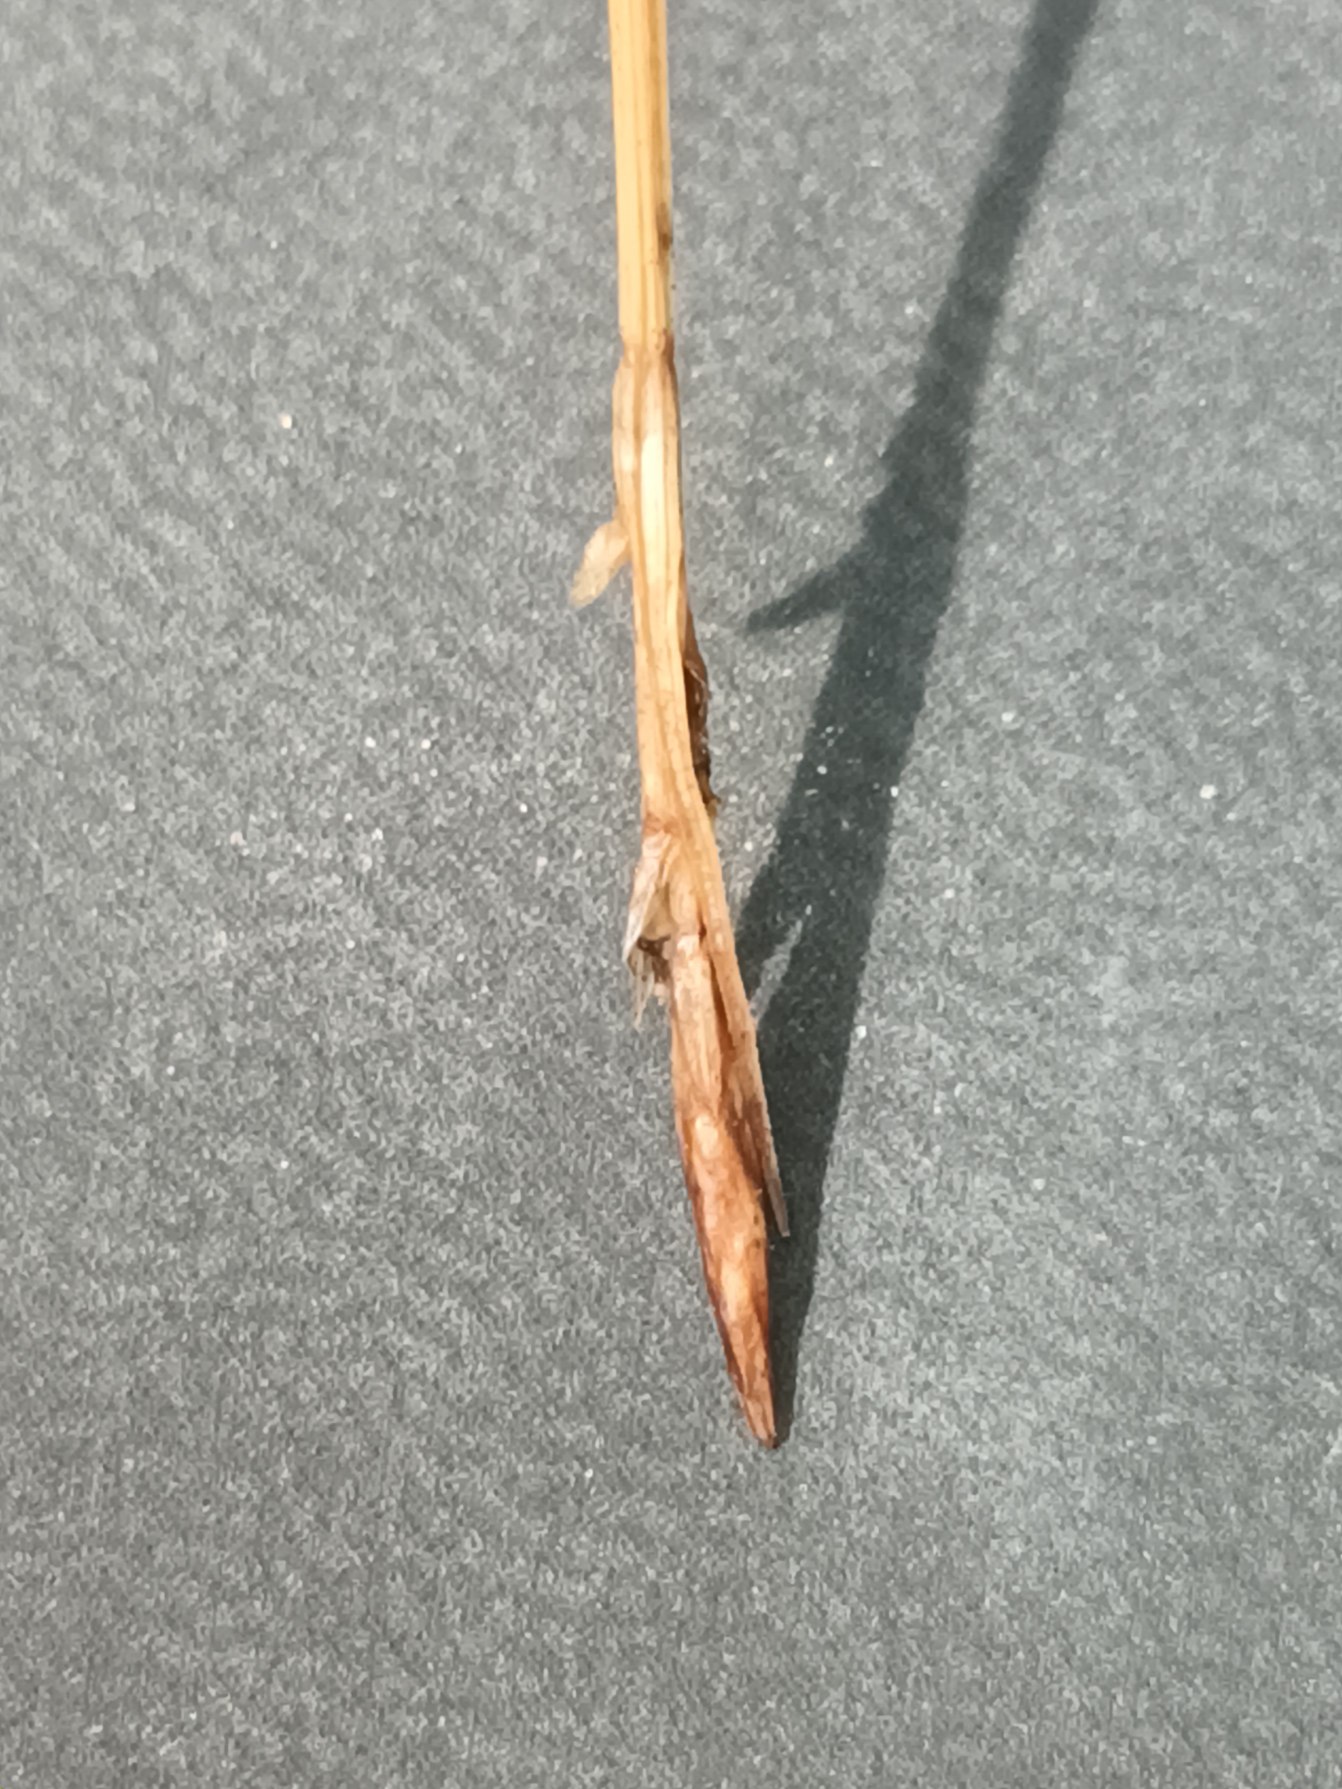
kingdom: Plantae
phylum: Tracheophyta
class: Liliopsida
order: Poales
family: Cyperaceae
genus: Carex
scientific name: Carex pilulifera
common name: Pille-star
